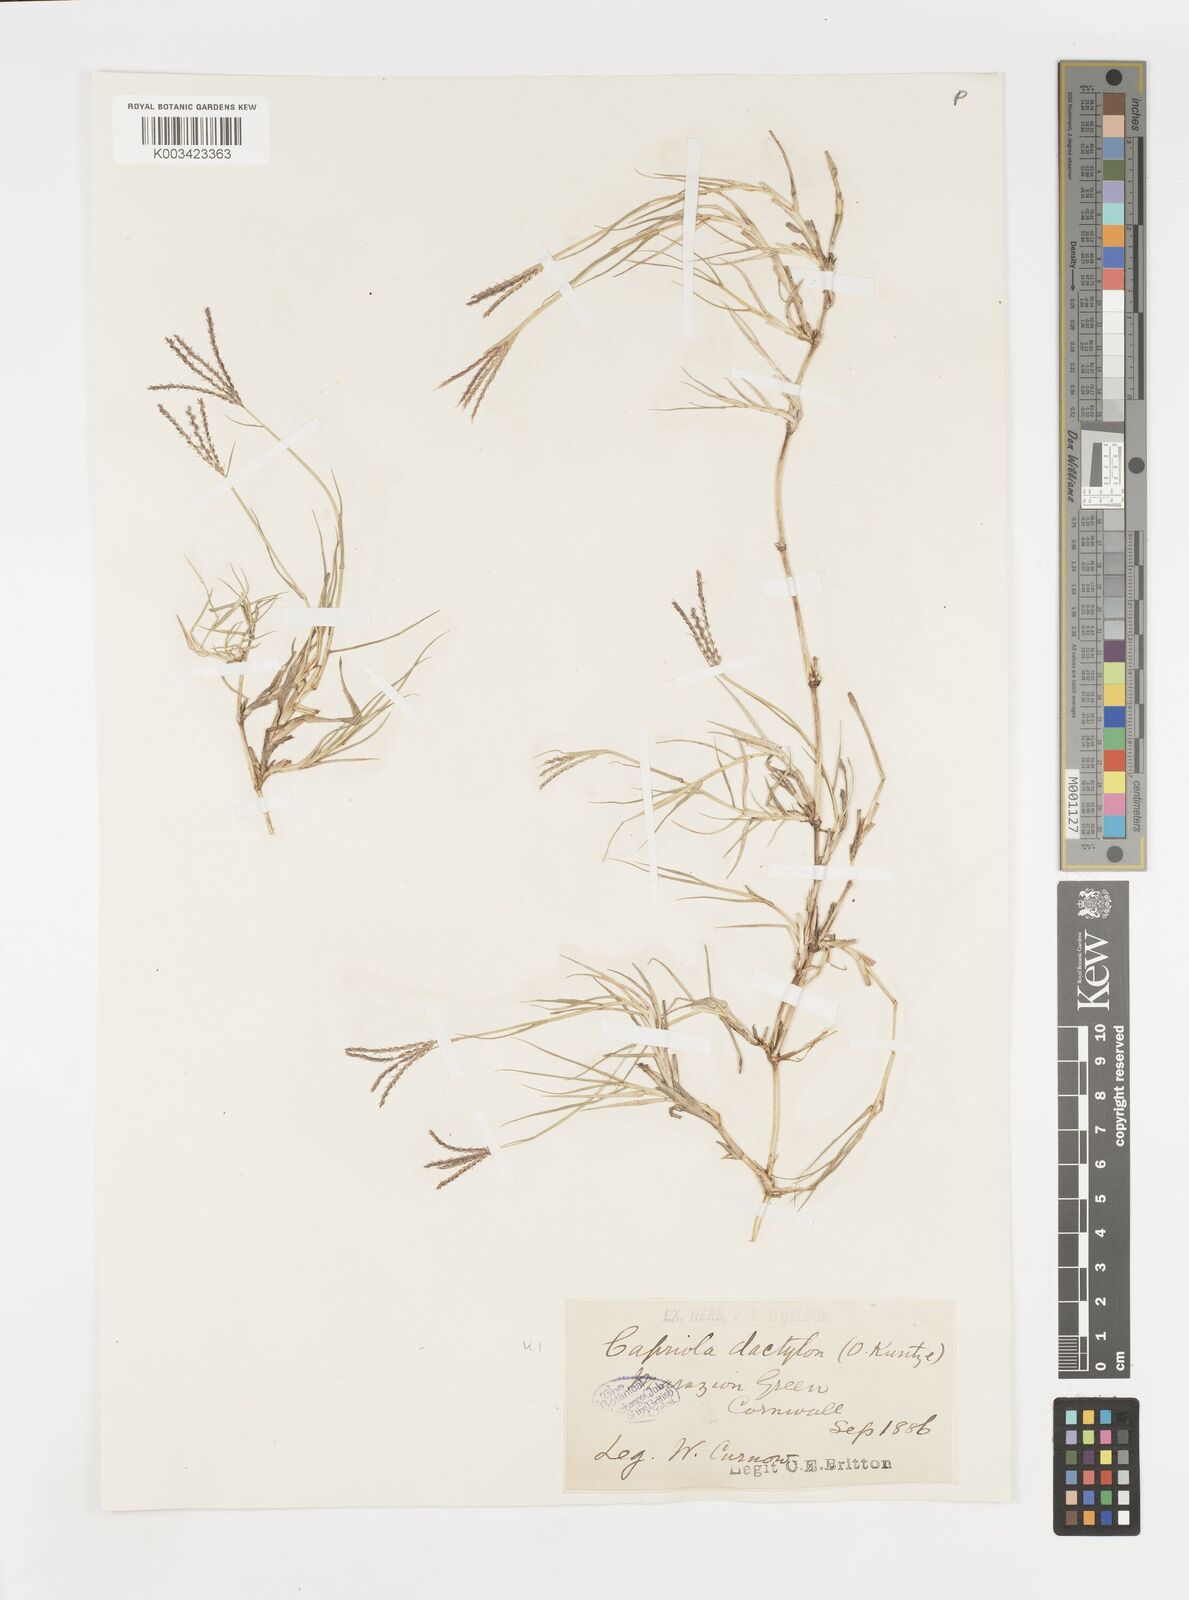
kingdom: Plantae
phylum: Tracheophyta
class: Liliopsida
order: Poales
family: Poaceae
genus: Cynodon
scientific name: Cynodon dactylon
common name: Bermuda grass
